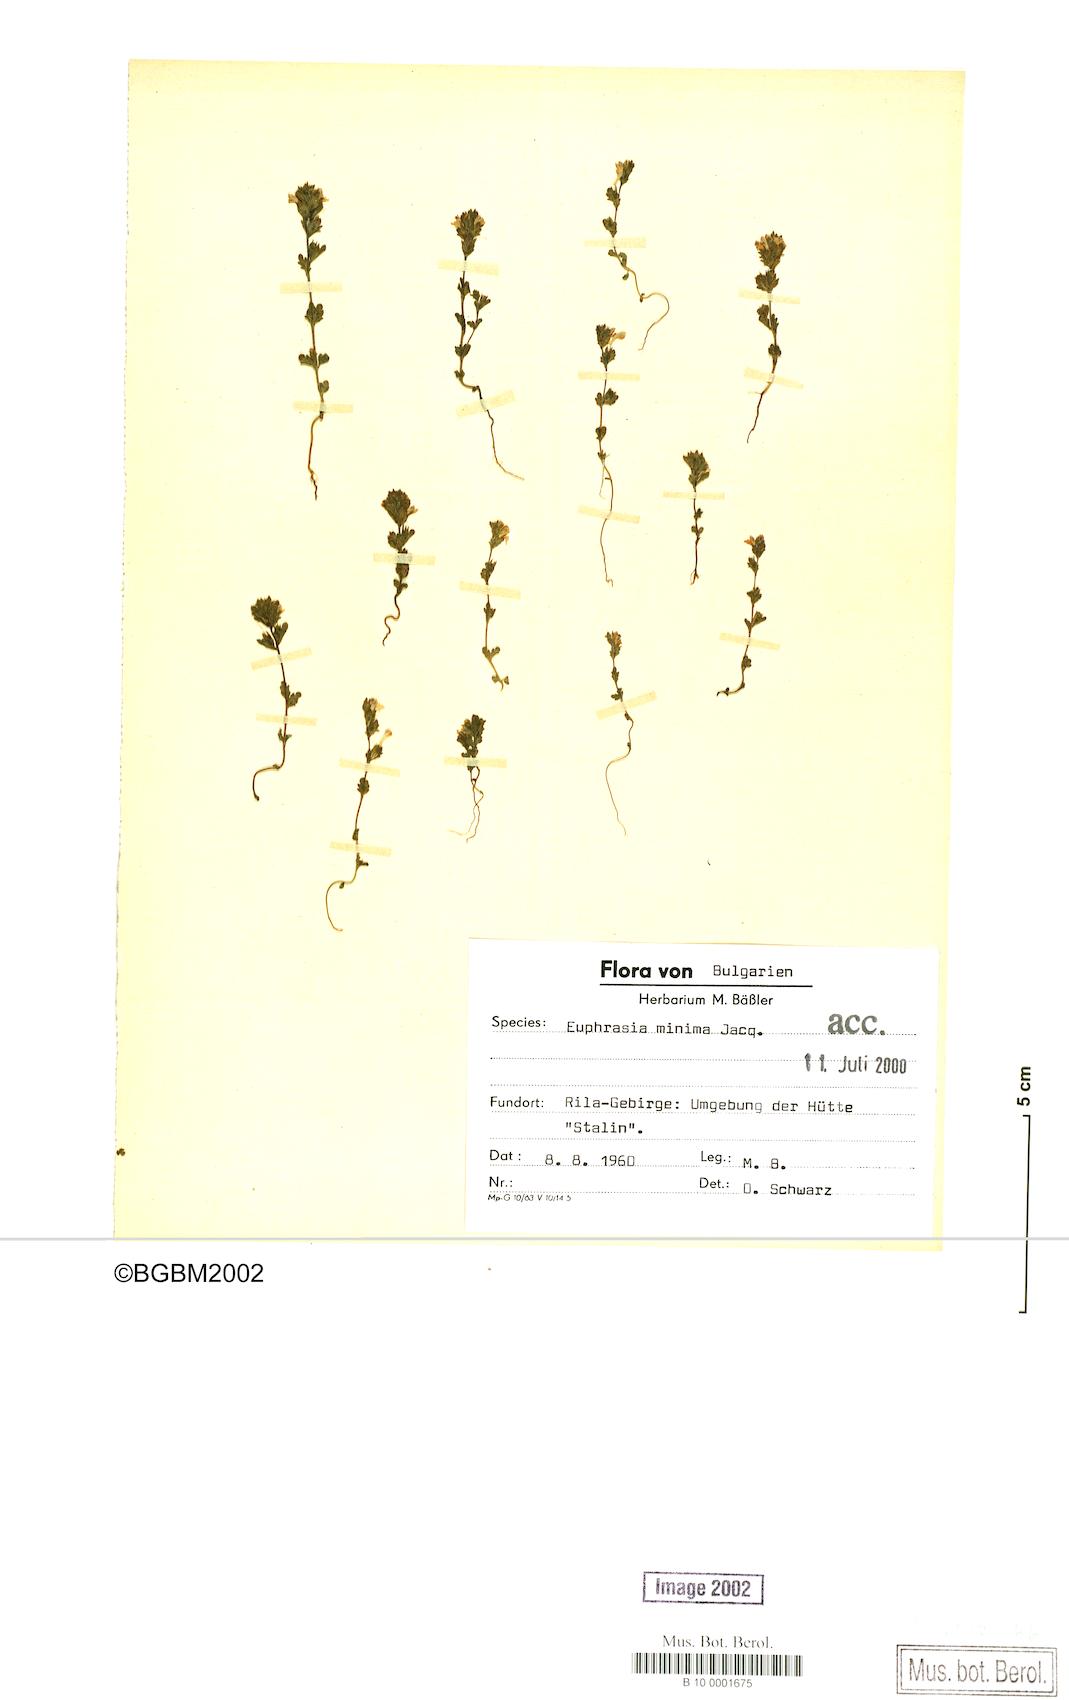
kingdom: Plantae
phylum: Tracheophyta
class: Magnoliopsida
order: Lamiales
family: Orobanchaceae
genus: Euphrasia
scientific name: Euphrasia minima
